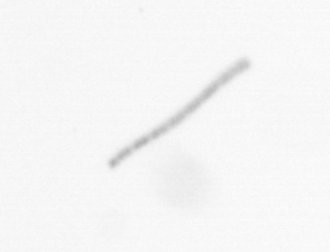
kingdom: Chromista
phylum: Ochrophyta
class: Bacillariophyceae
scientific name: Bacillariophyceae
